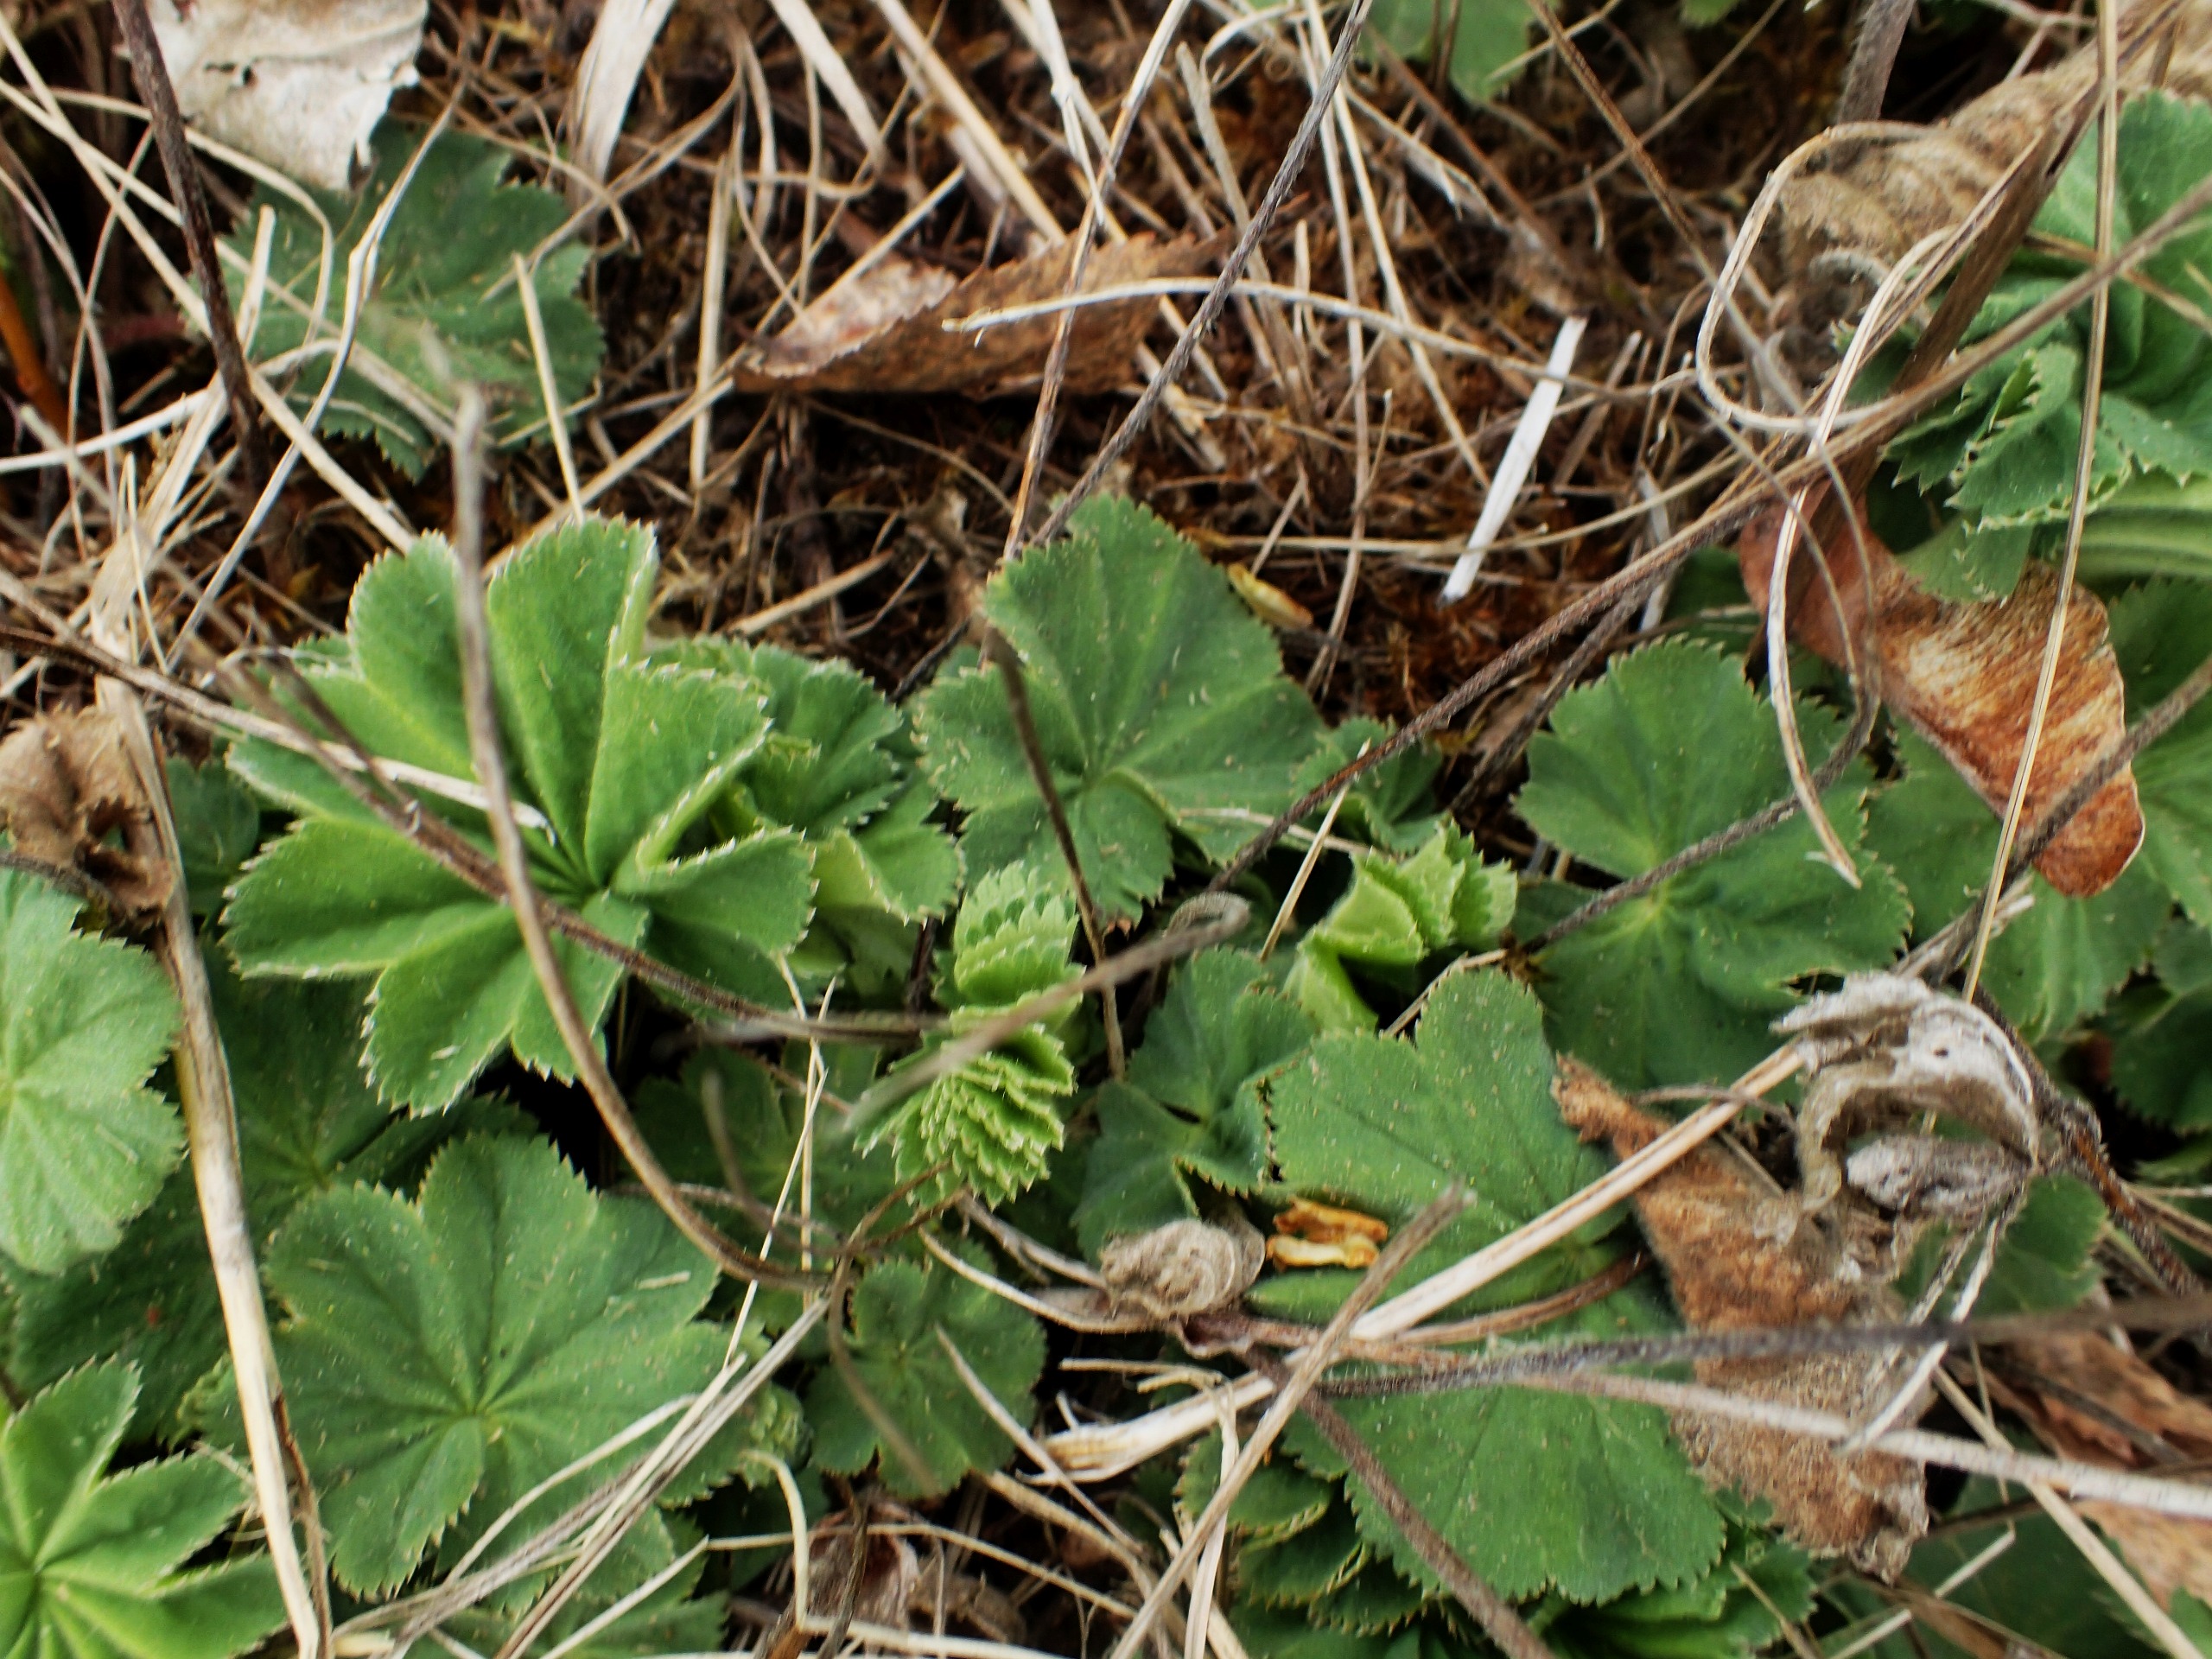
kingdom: Plantae
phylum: Tracheophyta
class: Magnoliopsida
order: Rosales
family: Rosaceae
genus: Alchemilla
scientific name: Alchemilla mollis
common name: Lådden løvefod
